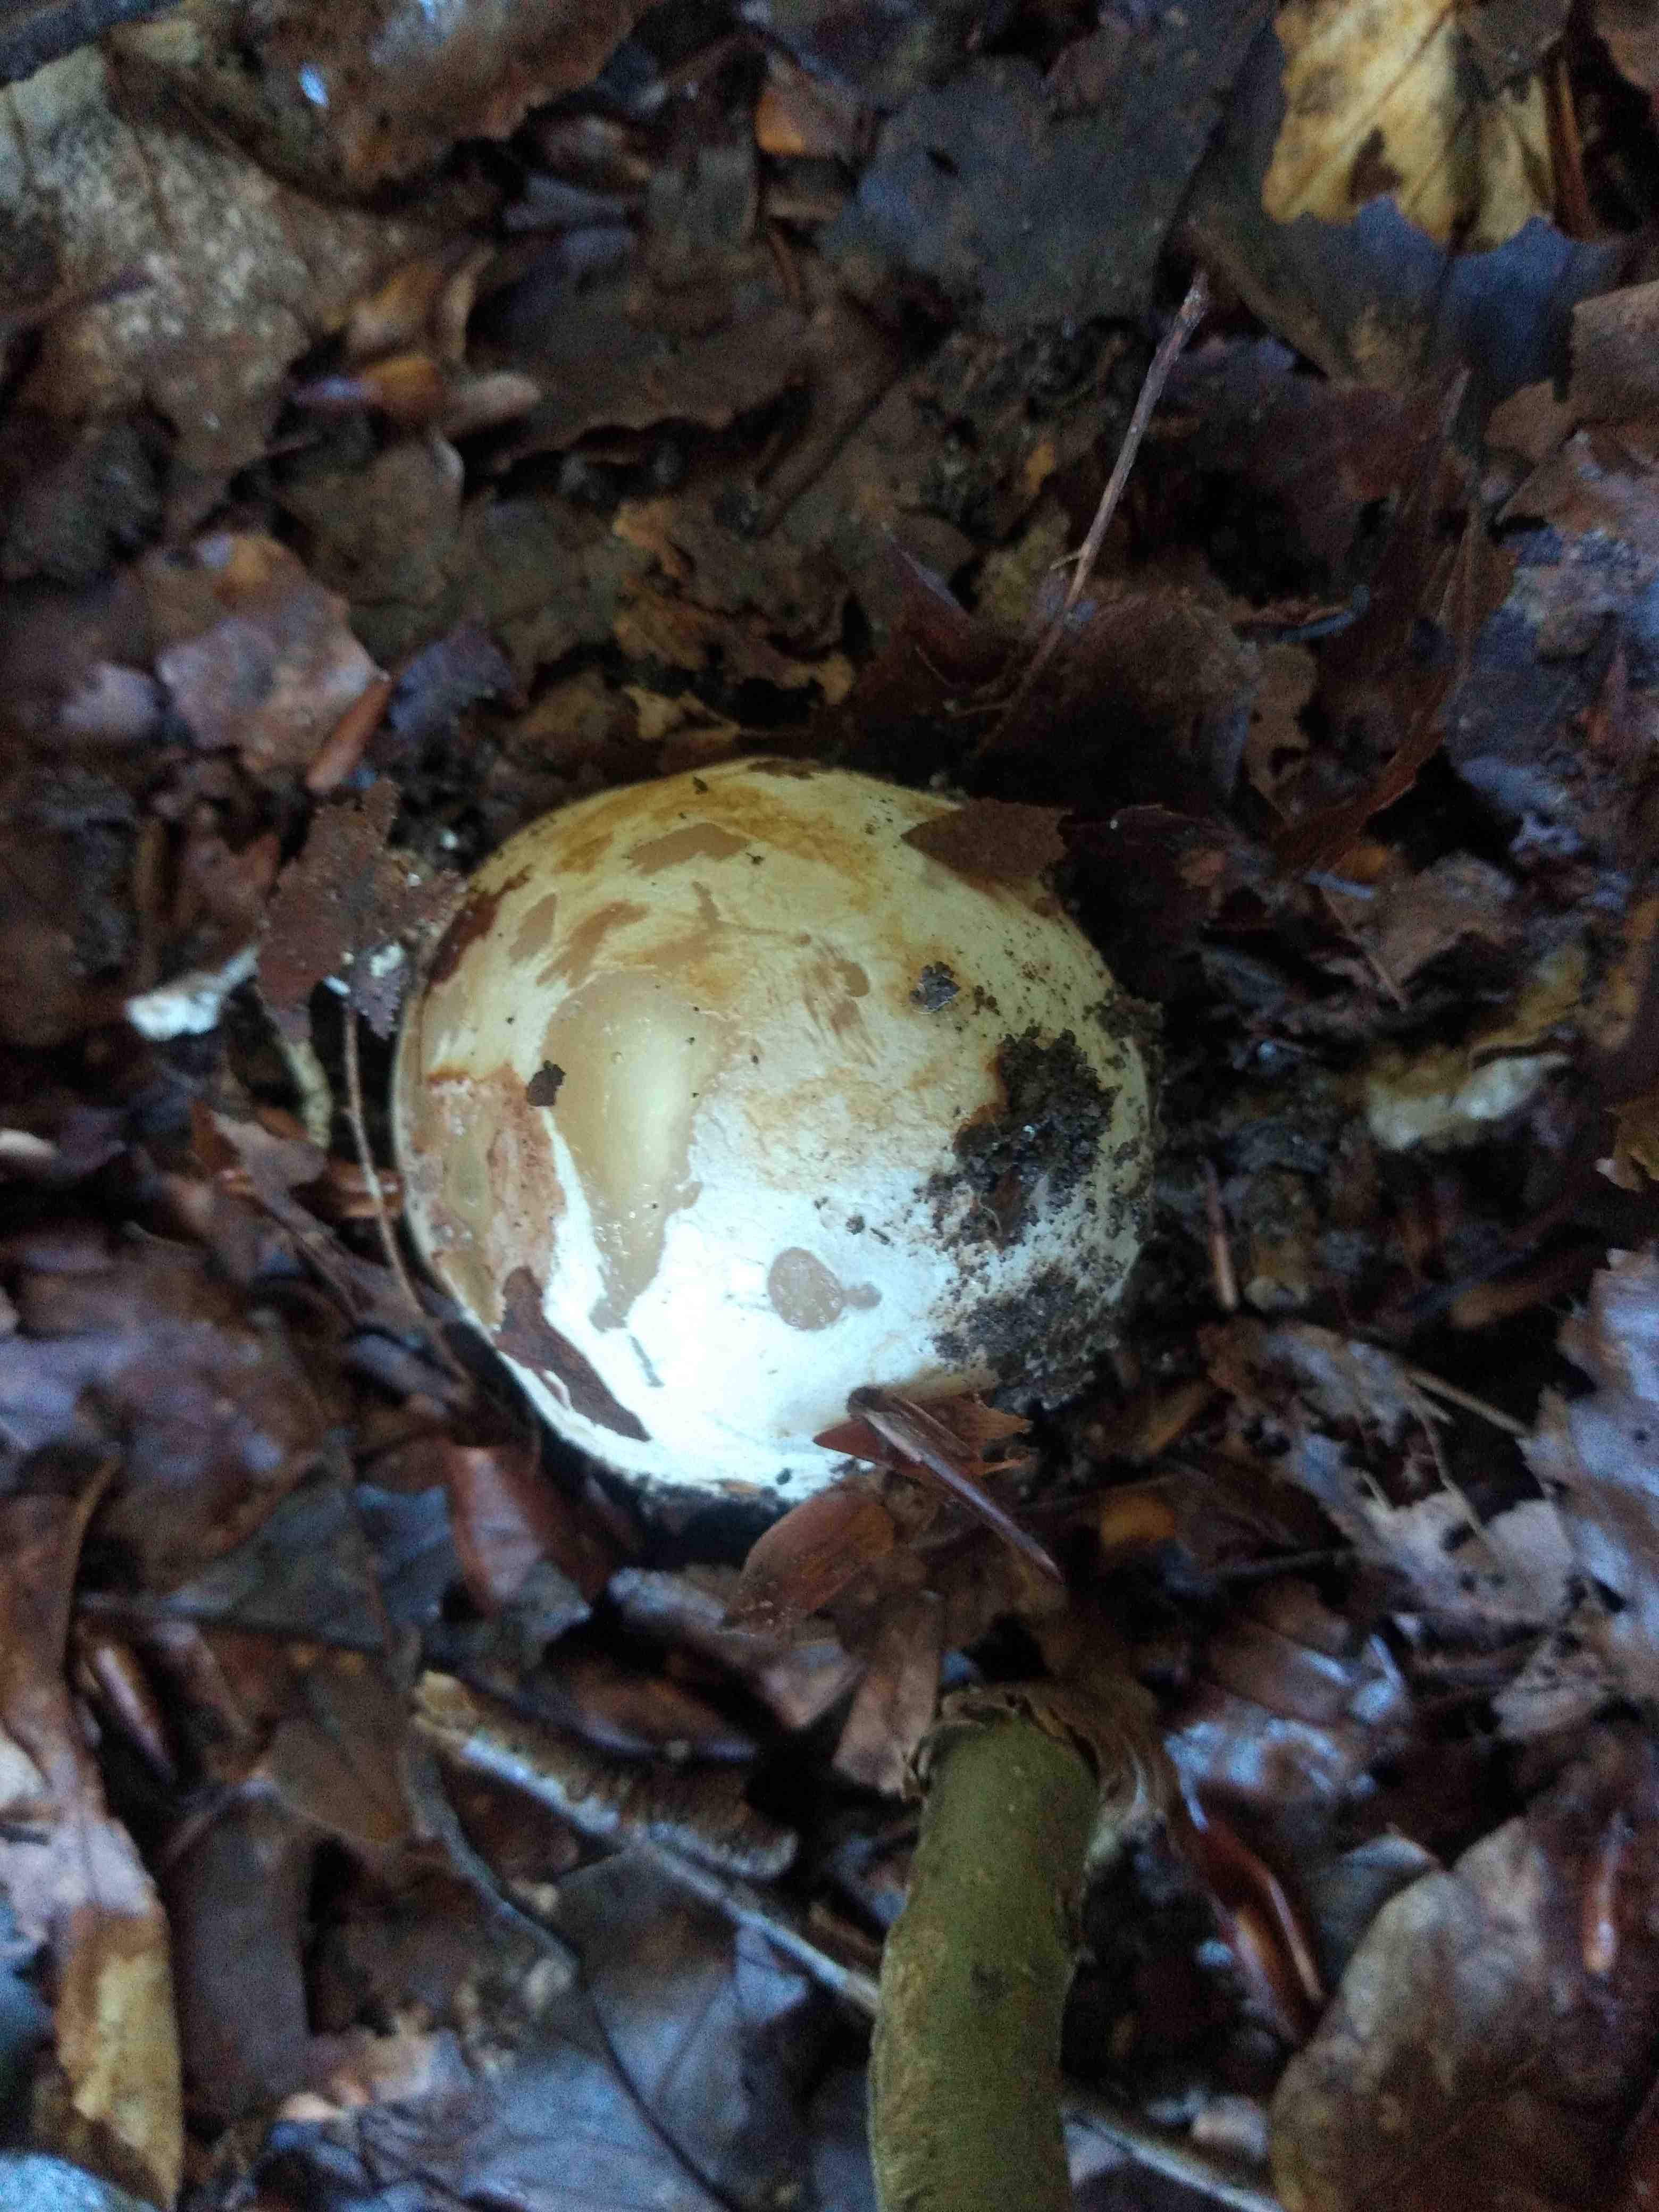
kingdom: Fungi
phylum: Basidiomycota
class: Agaricomycetes
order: Phallales
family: Phallaceae
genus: Phallus
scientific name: Phallus impudicus
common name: almindelig stinksvamp
